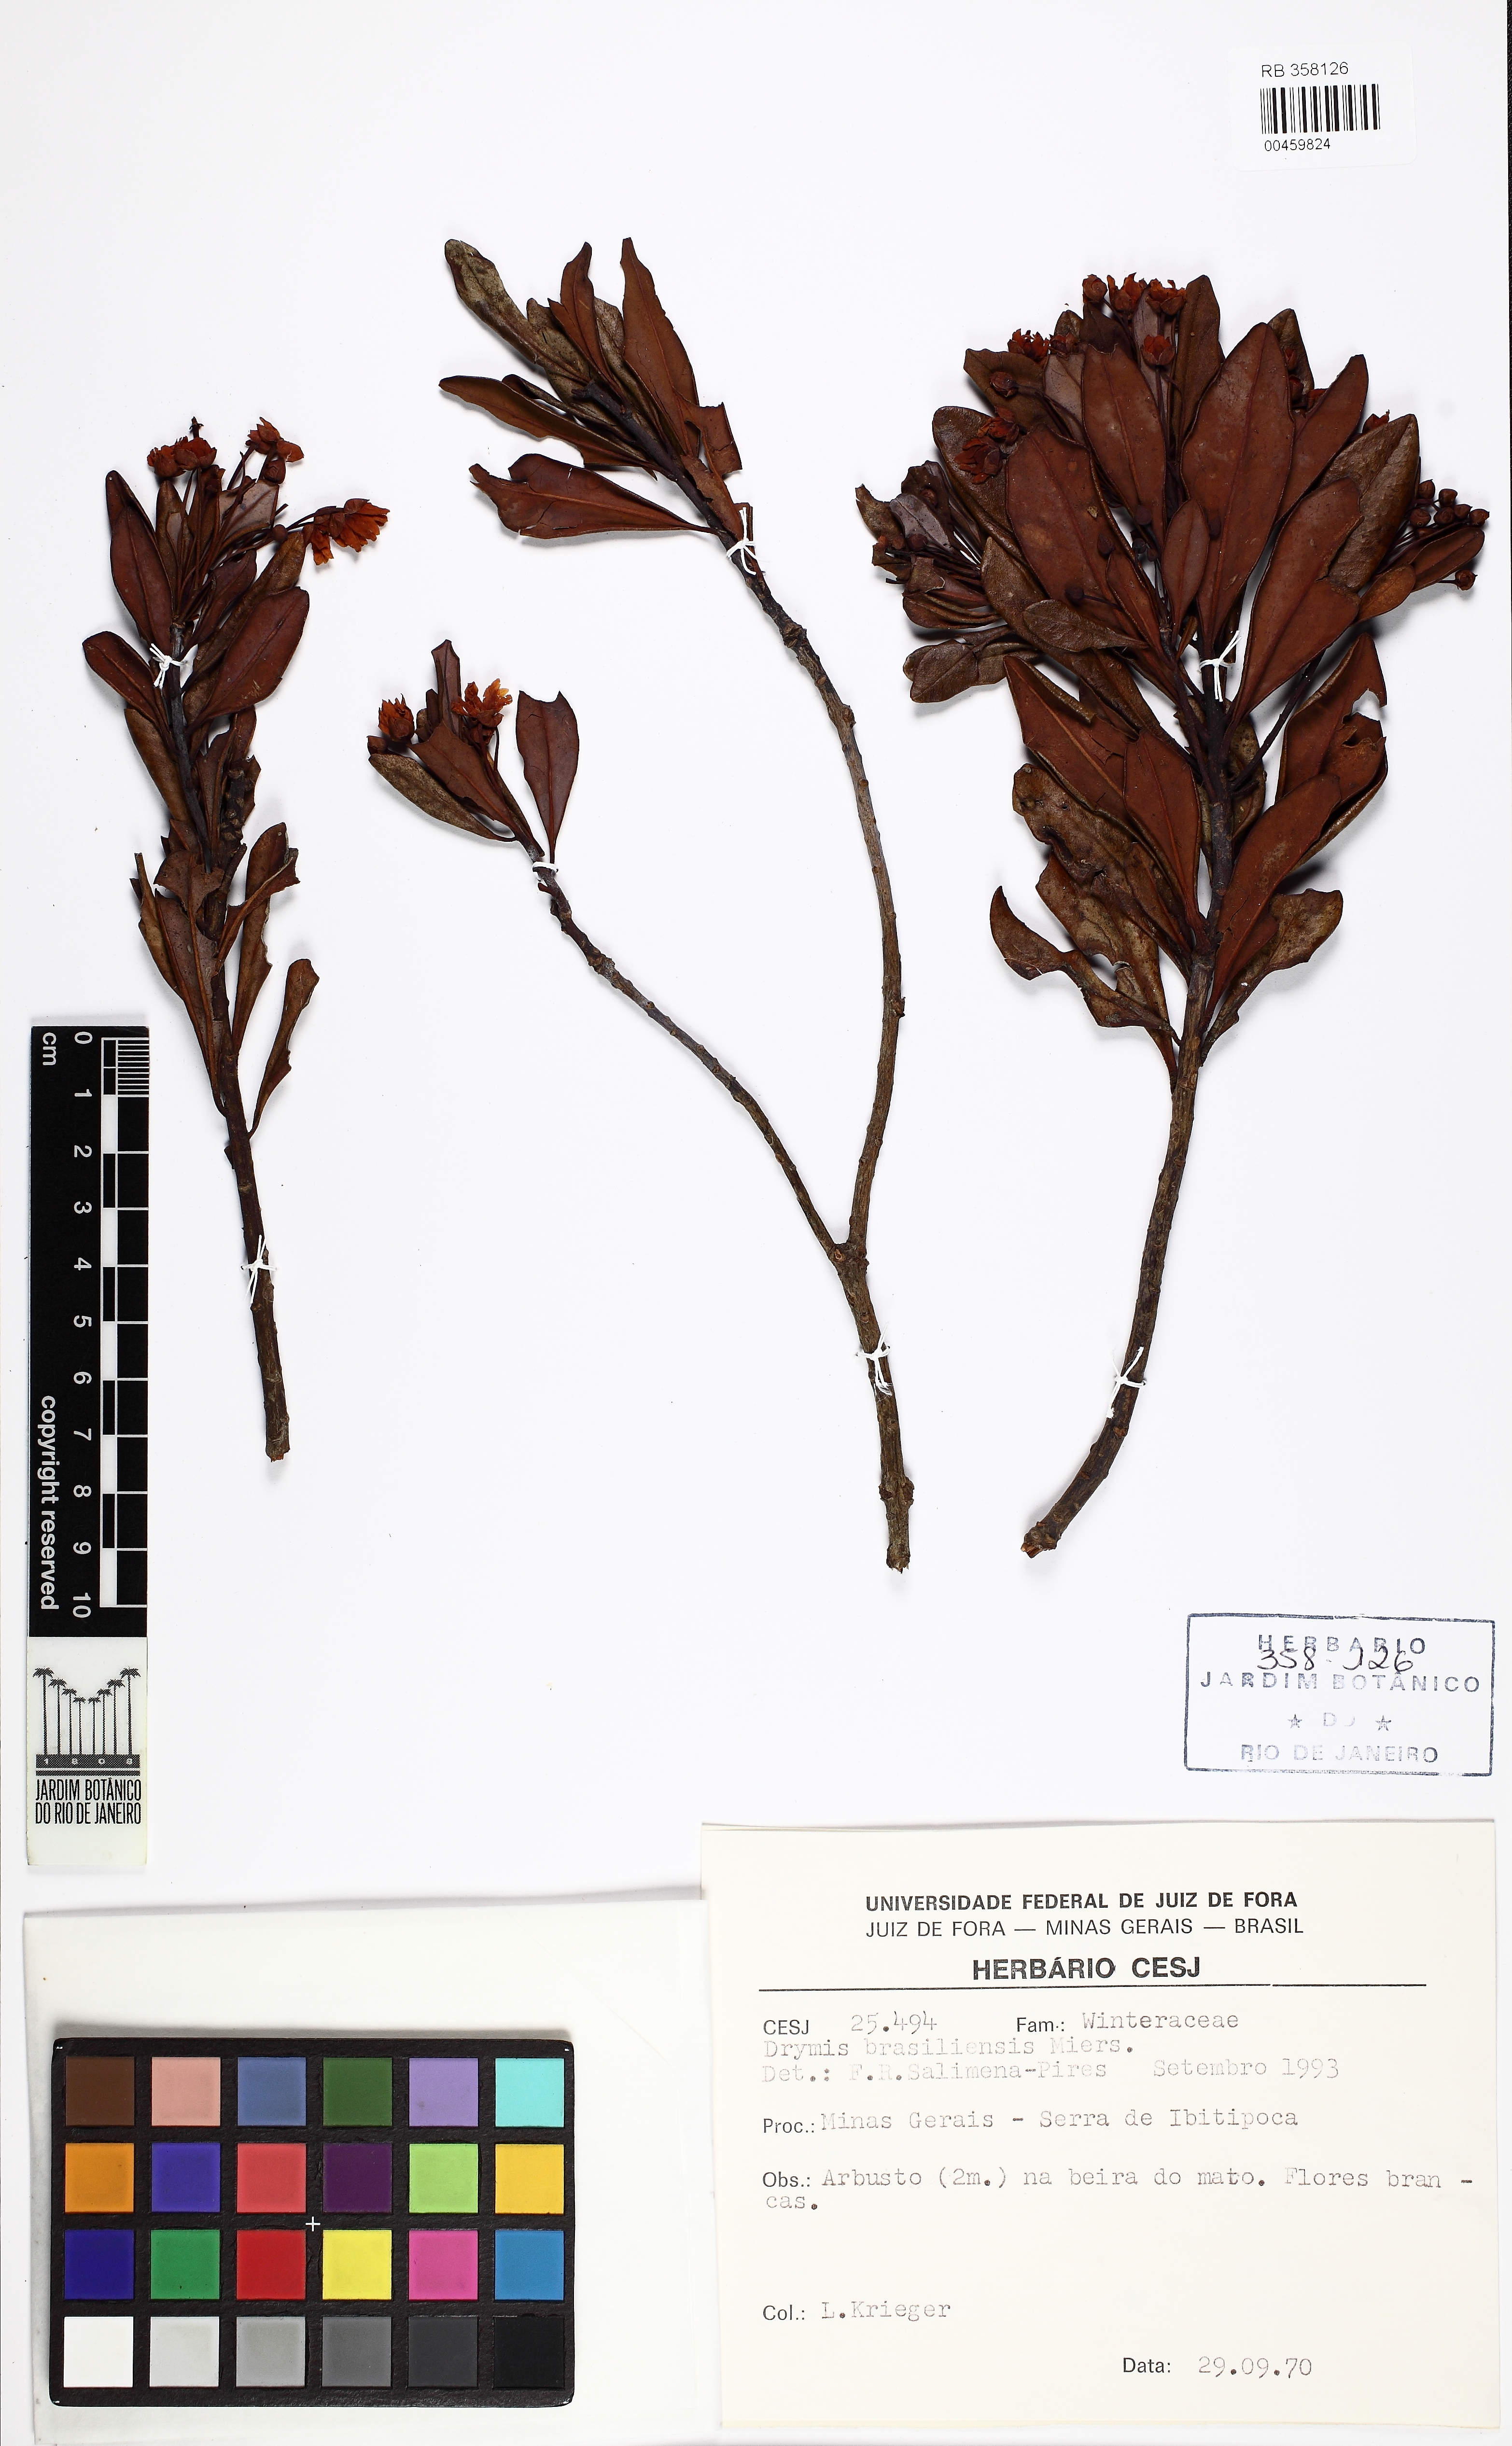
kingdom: Plantae
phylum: Tracheophyta
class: Magnoliopsida
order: Canellales
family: Winteraceae
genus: Drimys
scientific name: Drimys brasiliensis
